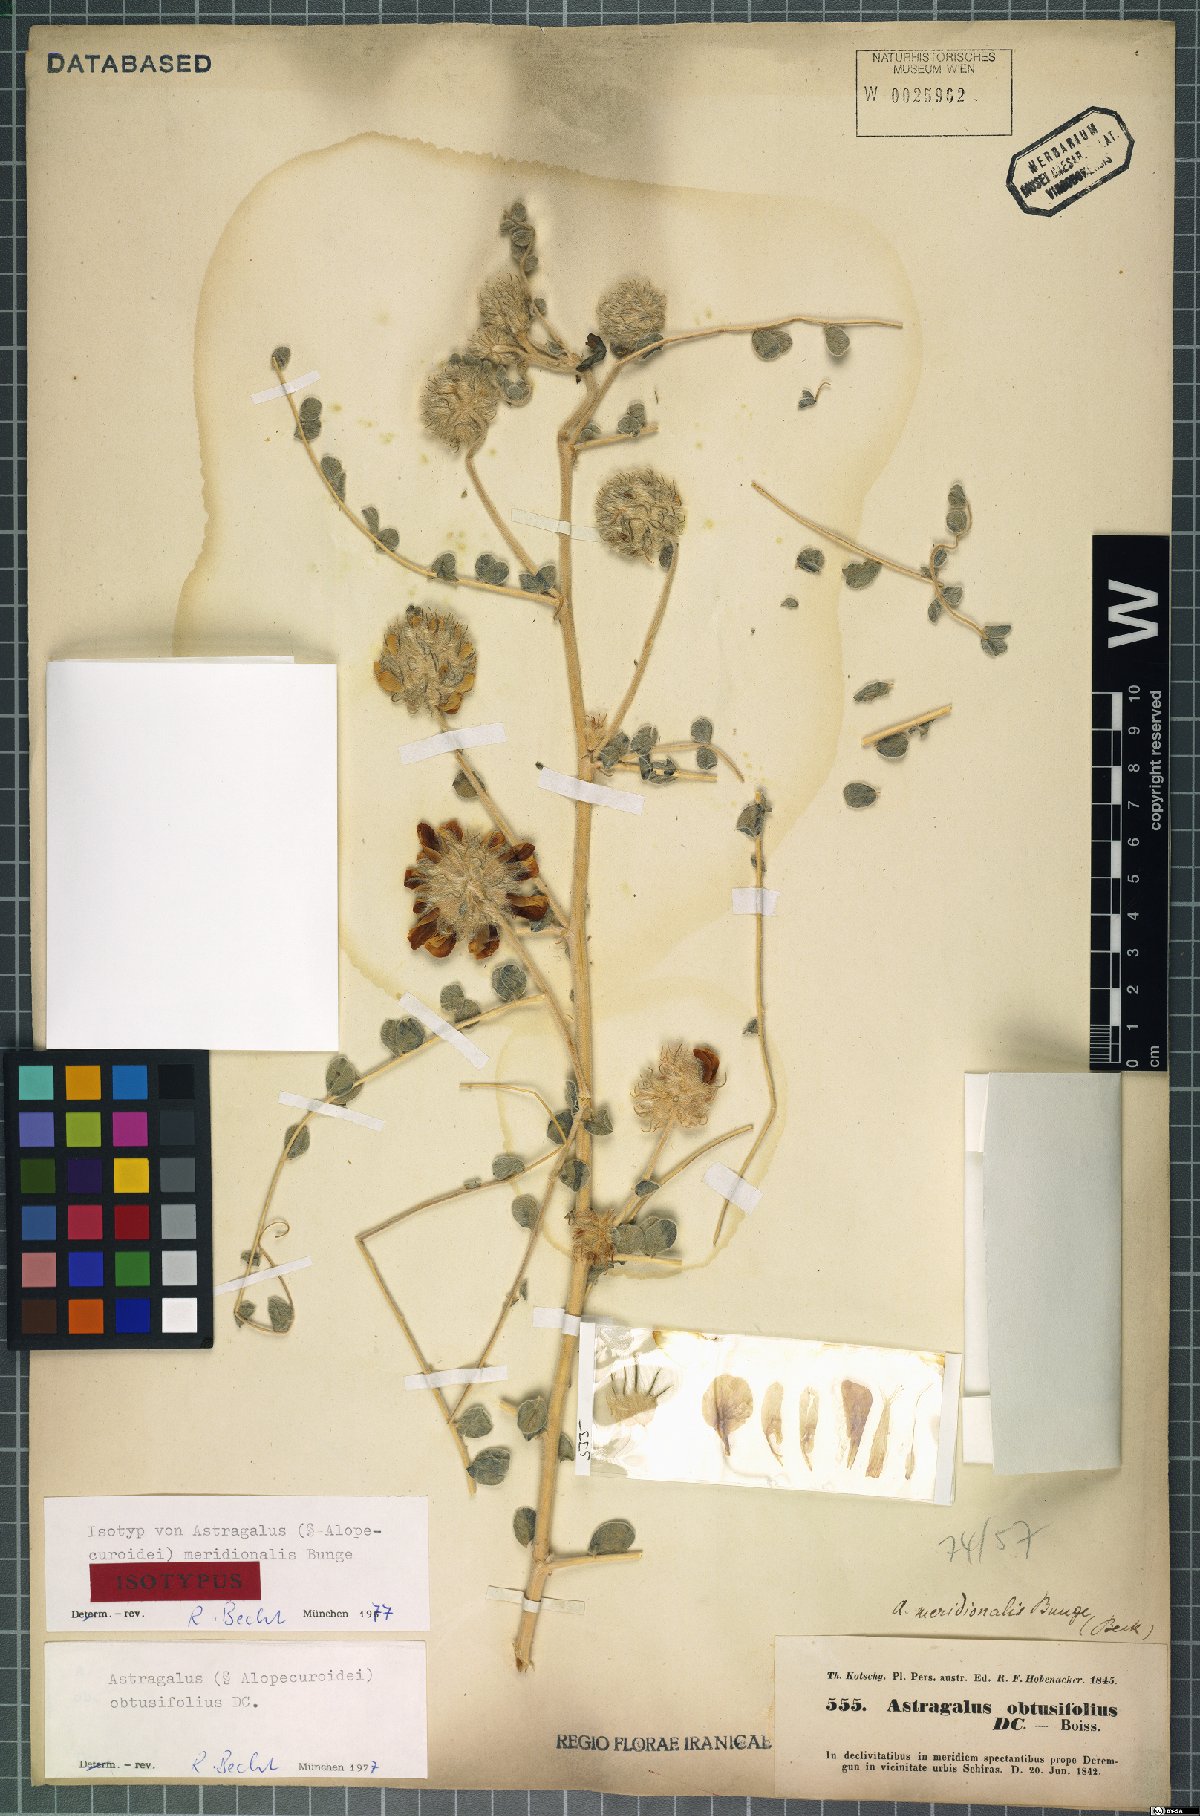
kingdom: Plantae
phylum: Tracheophyta
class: Magnoliopsida
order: Fabales
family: Fabaceae
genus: Astragalus
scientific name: Astragalus obtusifolius
